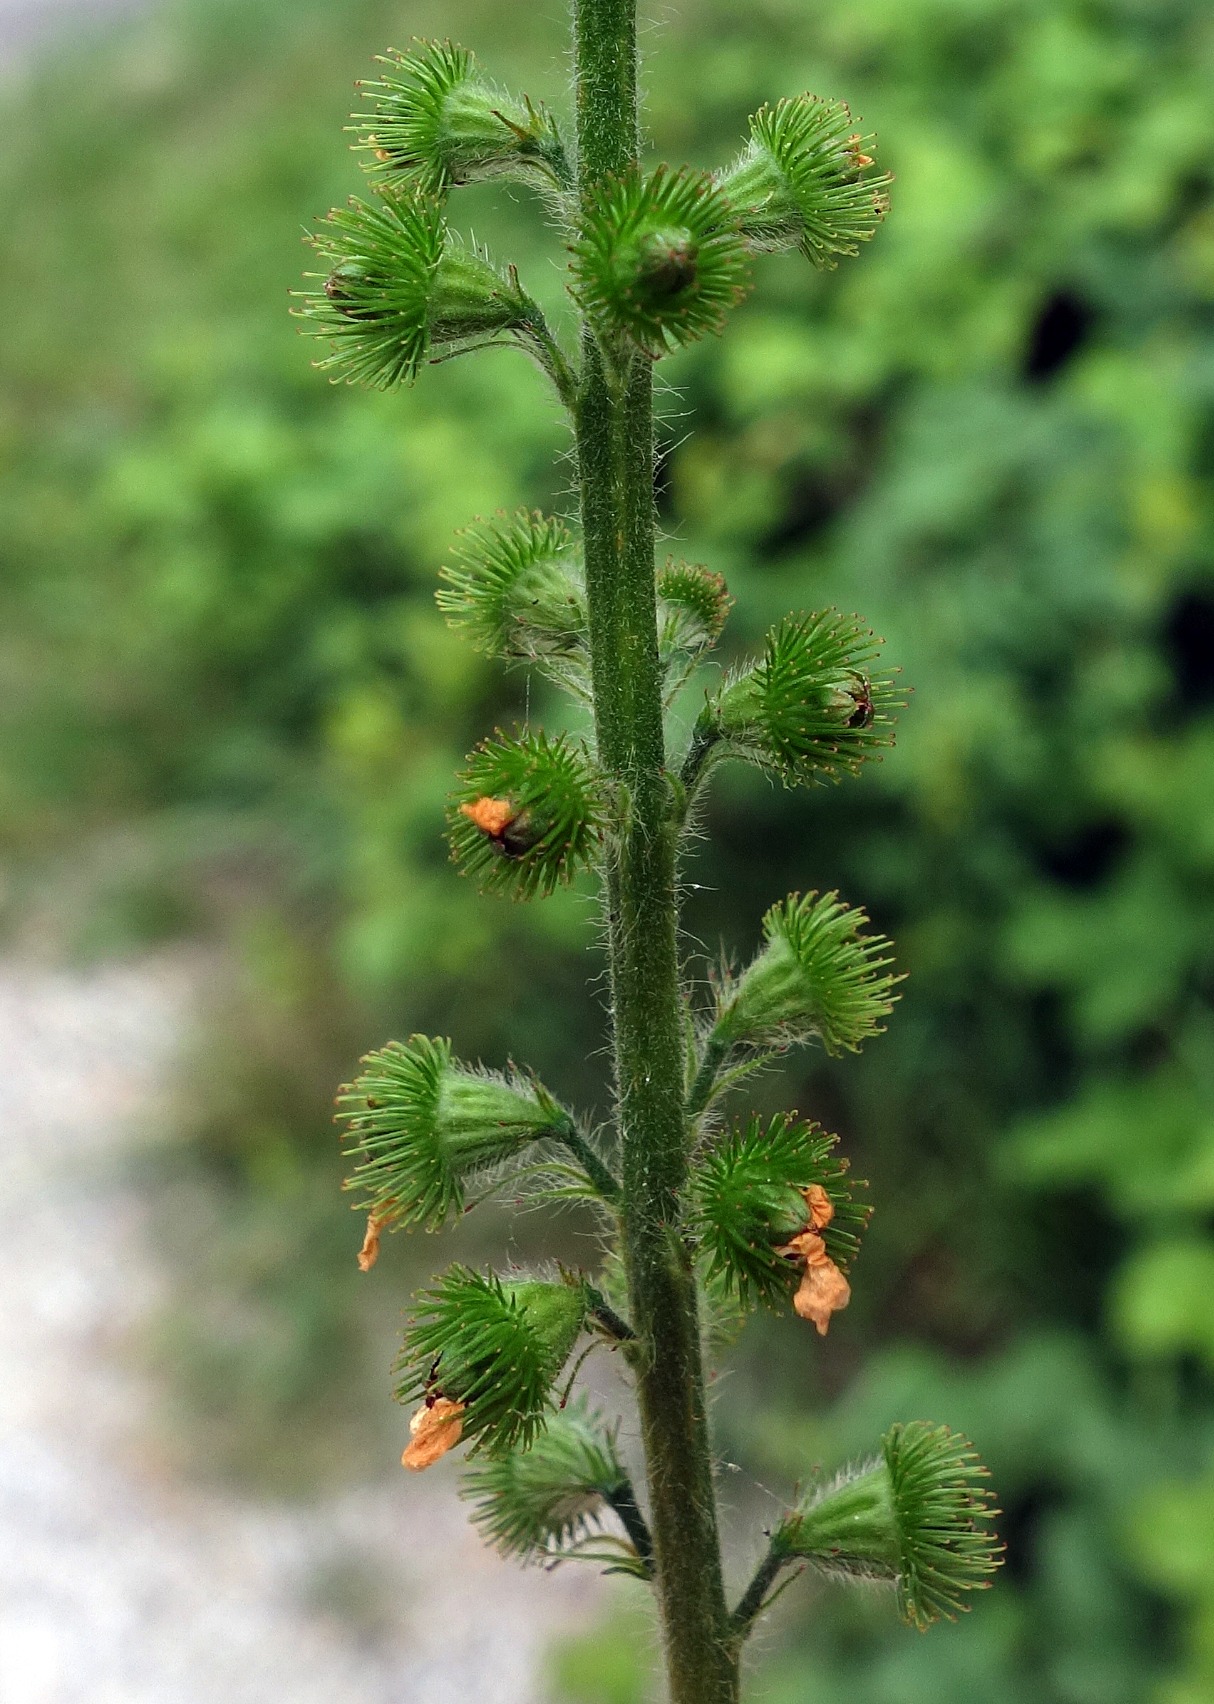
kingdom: Plantae
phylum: Tracheophyta
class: Magnoliopsida
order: Rosales
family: Rosaceae
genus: Agrimonia
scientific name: Agrimonia eupatoria
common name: Almindelig agermåne
